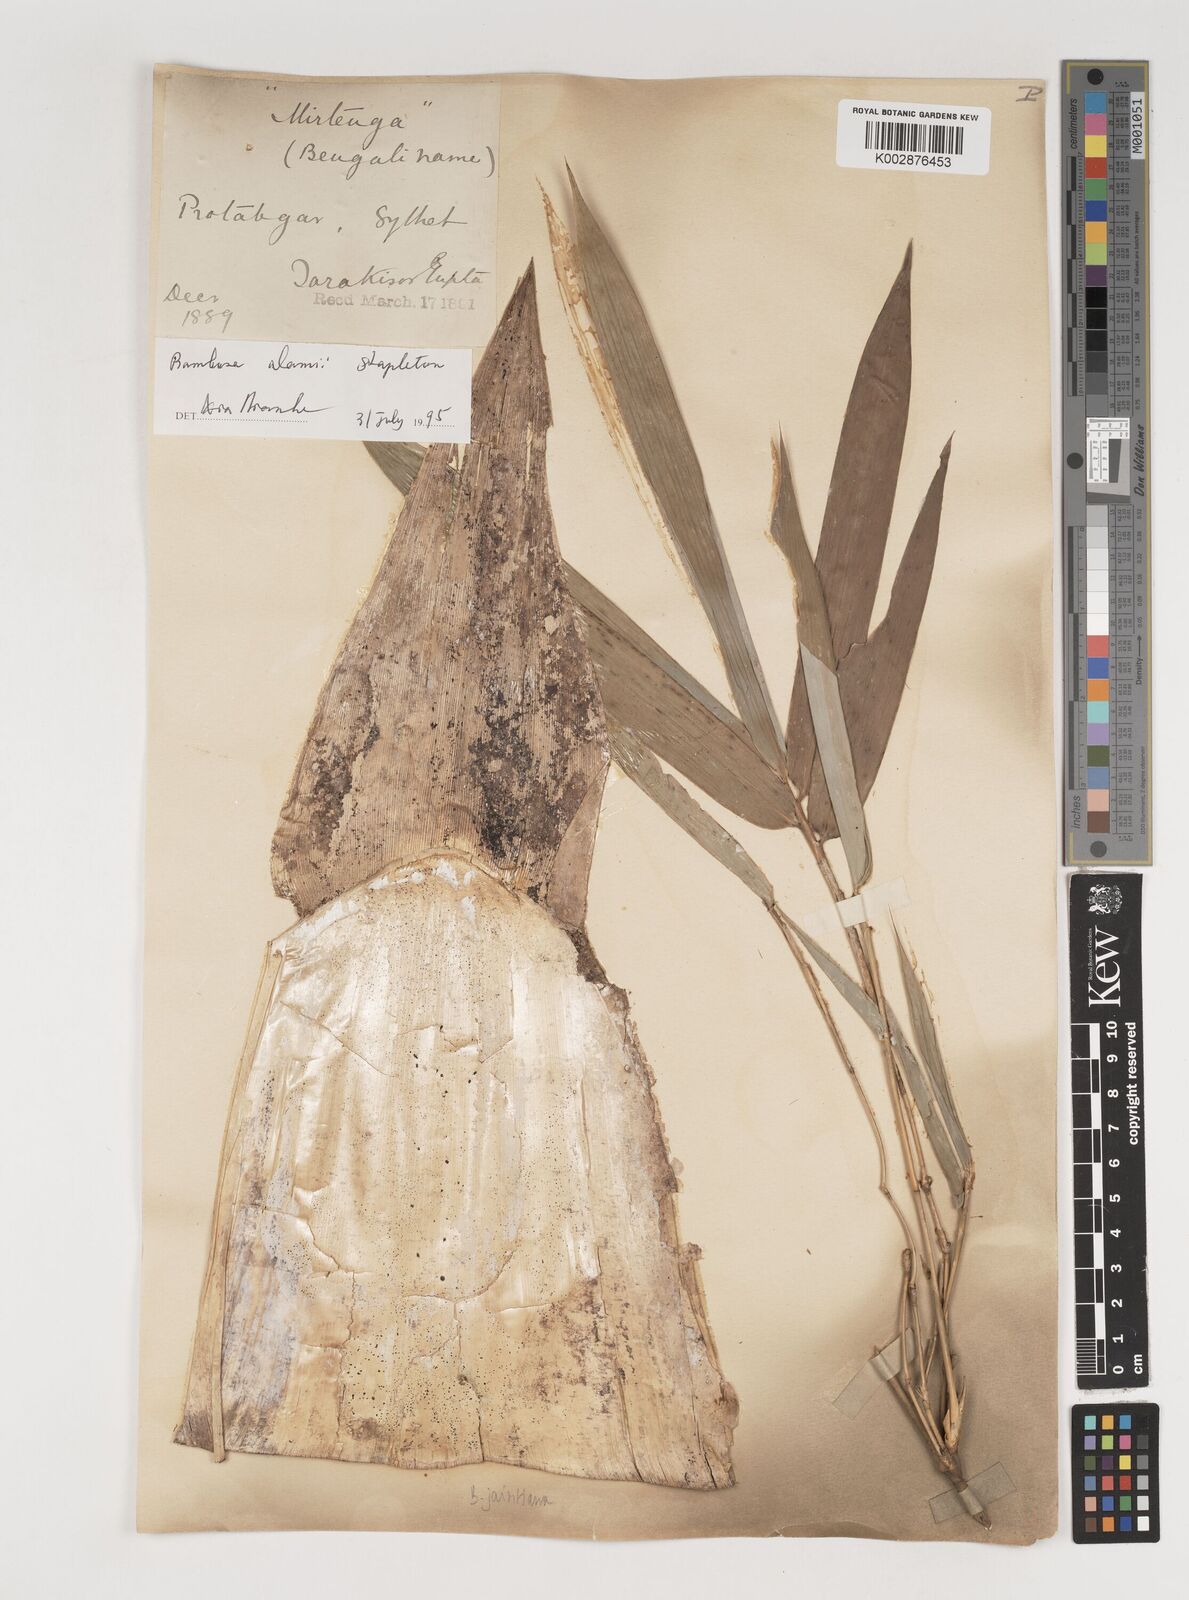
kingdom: Plantae
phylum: Tracheophyta
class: Liliopsida
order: Poales
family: Poaceae
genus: Bambusa
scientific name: Bambusa jaintiana
